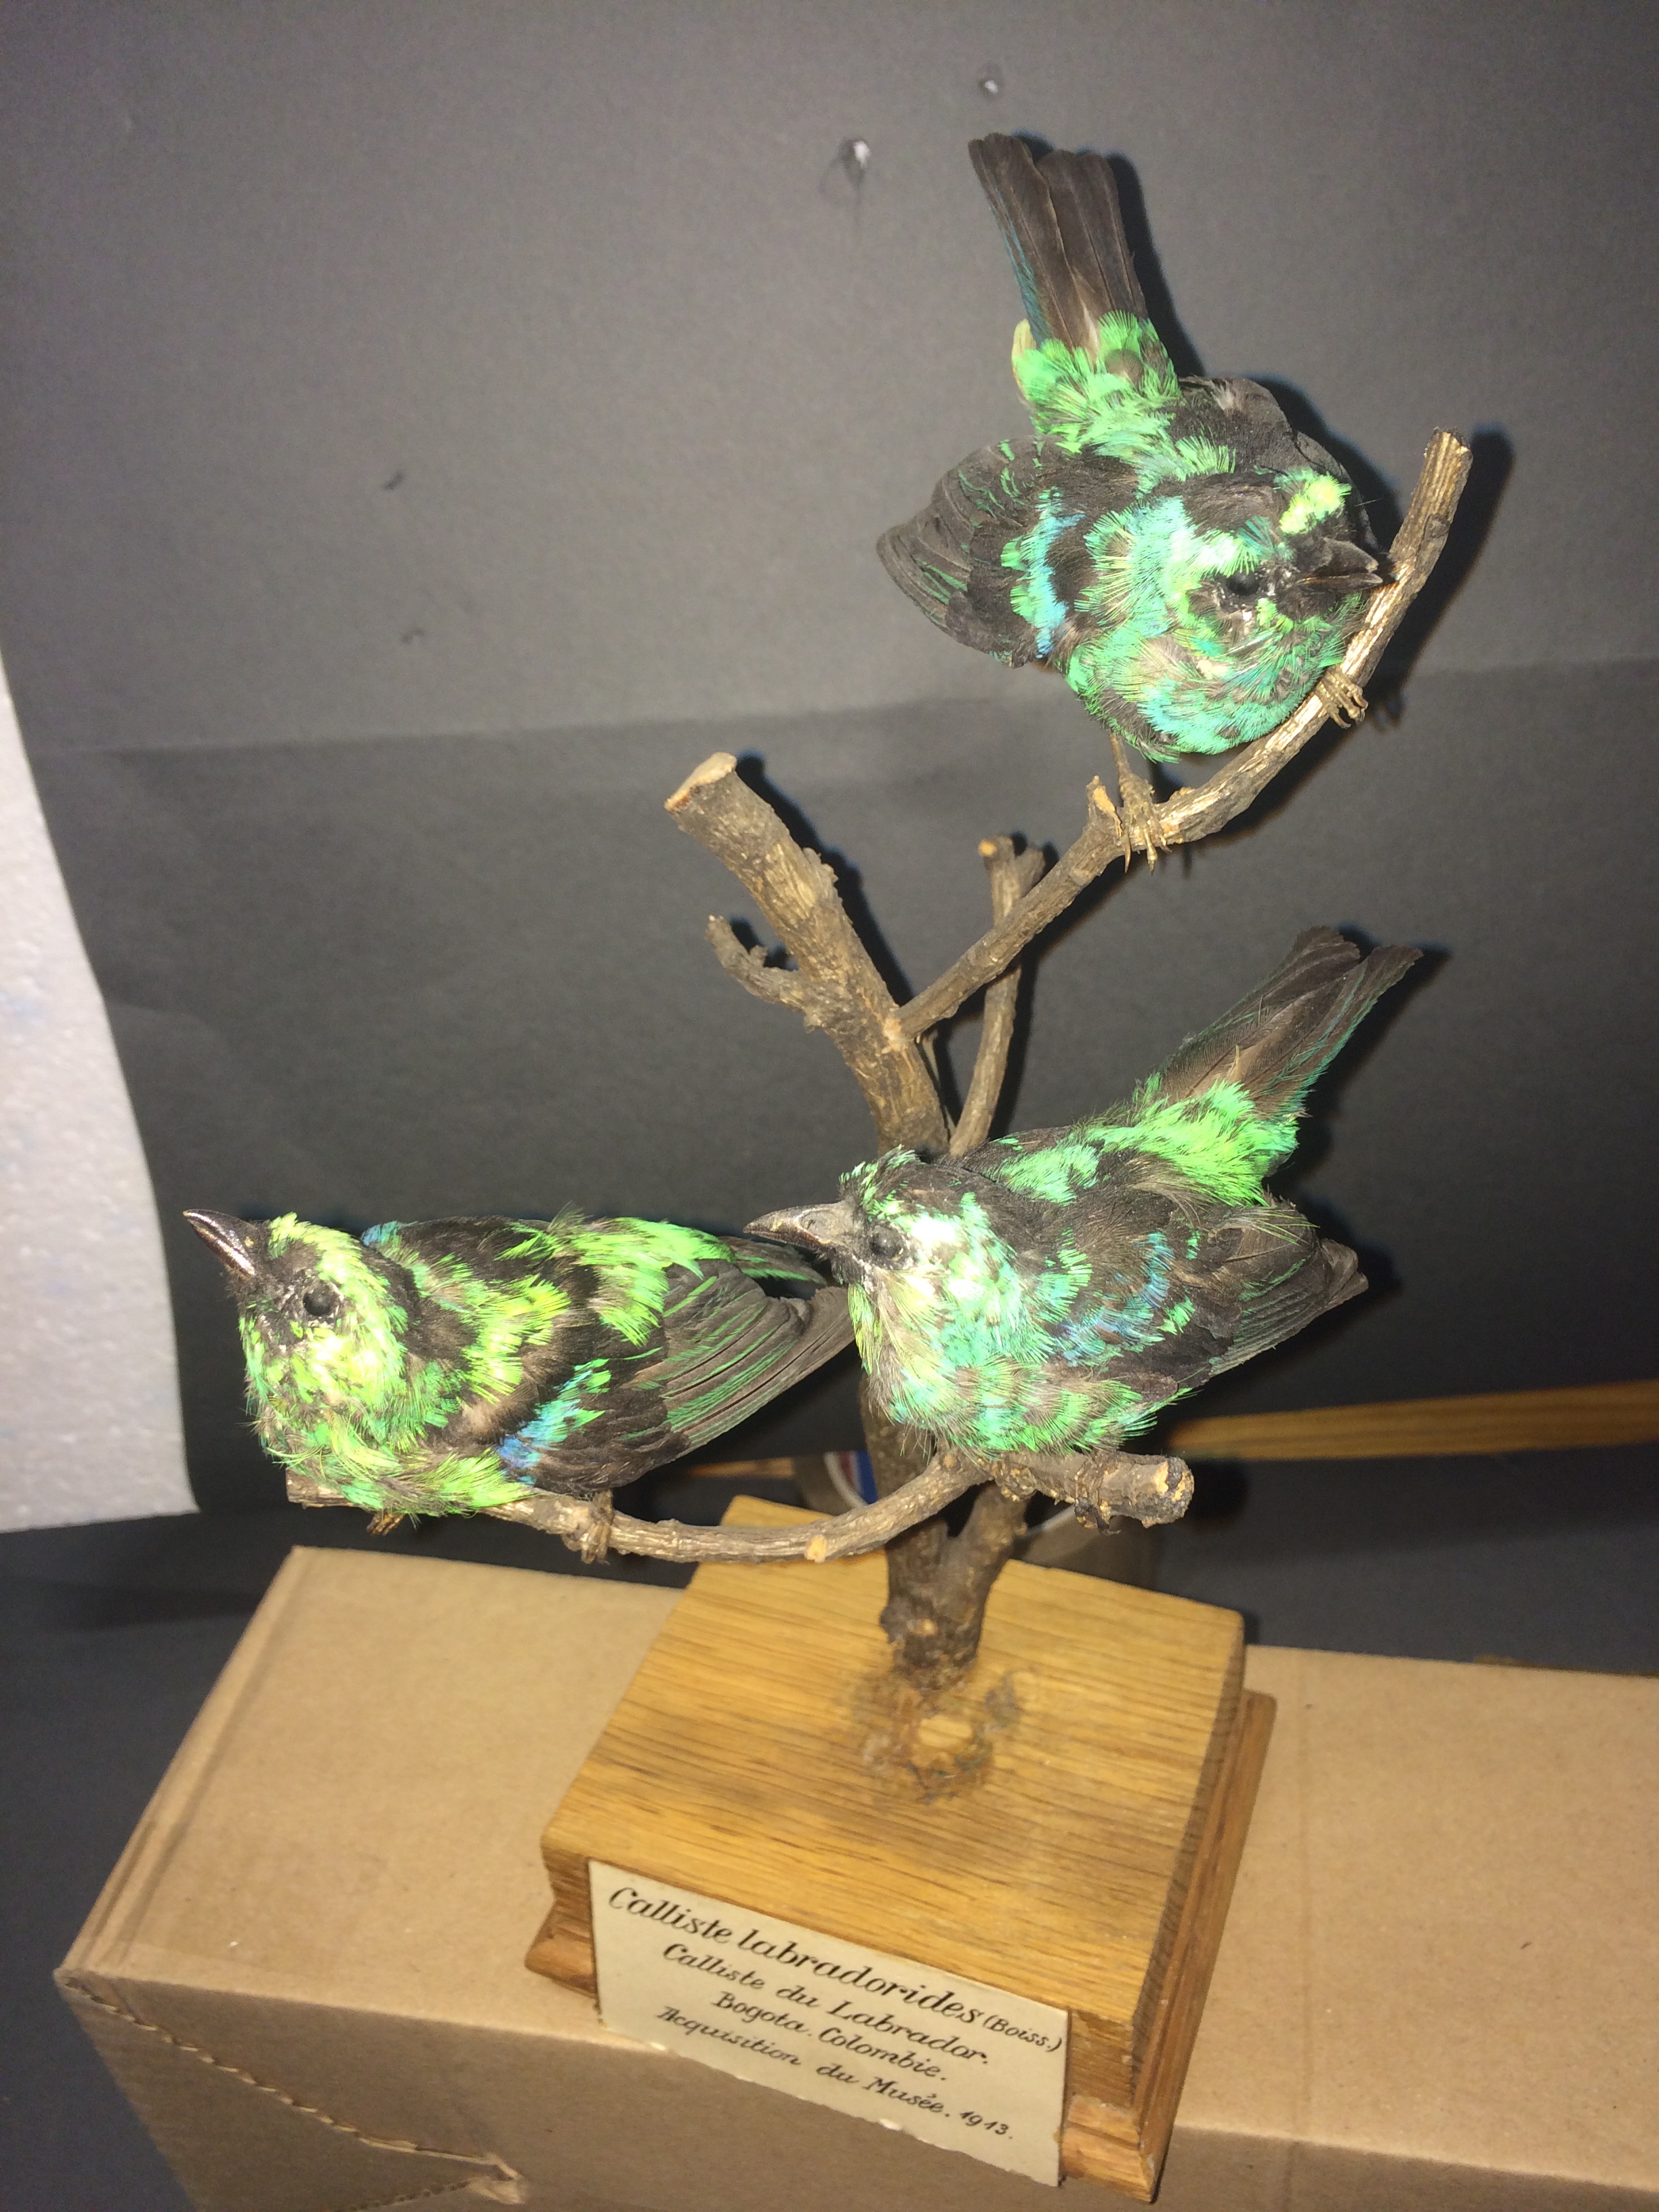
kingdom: Animalia
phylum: Chordata
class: Aves
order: Passeriformes
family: Thraupidae
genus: Tangara
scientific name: Tangara labradorides
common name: Metallic-green tanager
